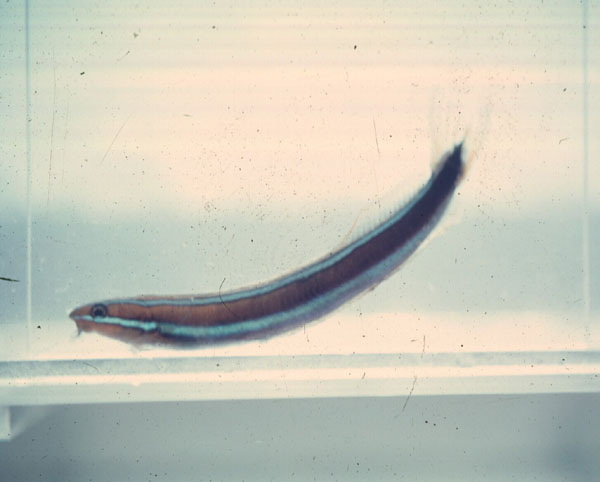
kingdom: Animalia
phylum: Chordata
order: Perciformes
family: Blenniidae
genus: Plagiotremus
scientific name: Plagiotremus rhinorhynchos
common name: Bluestriped fangblenny
